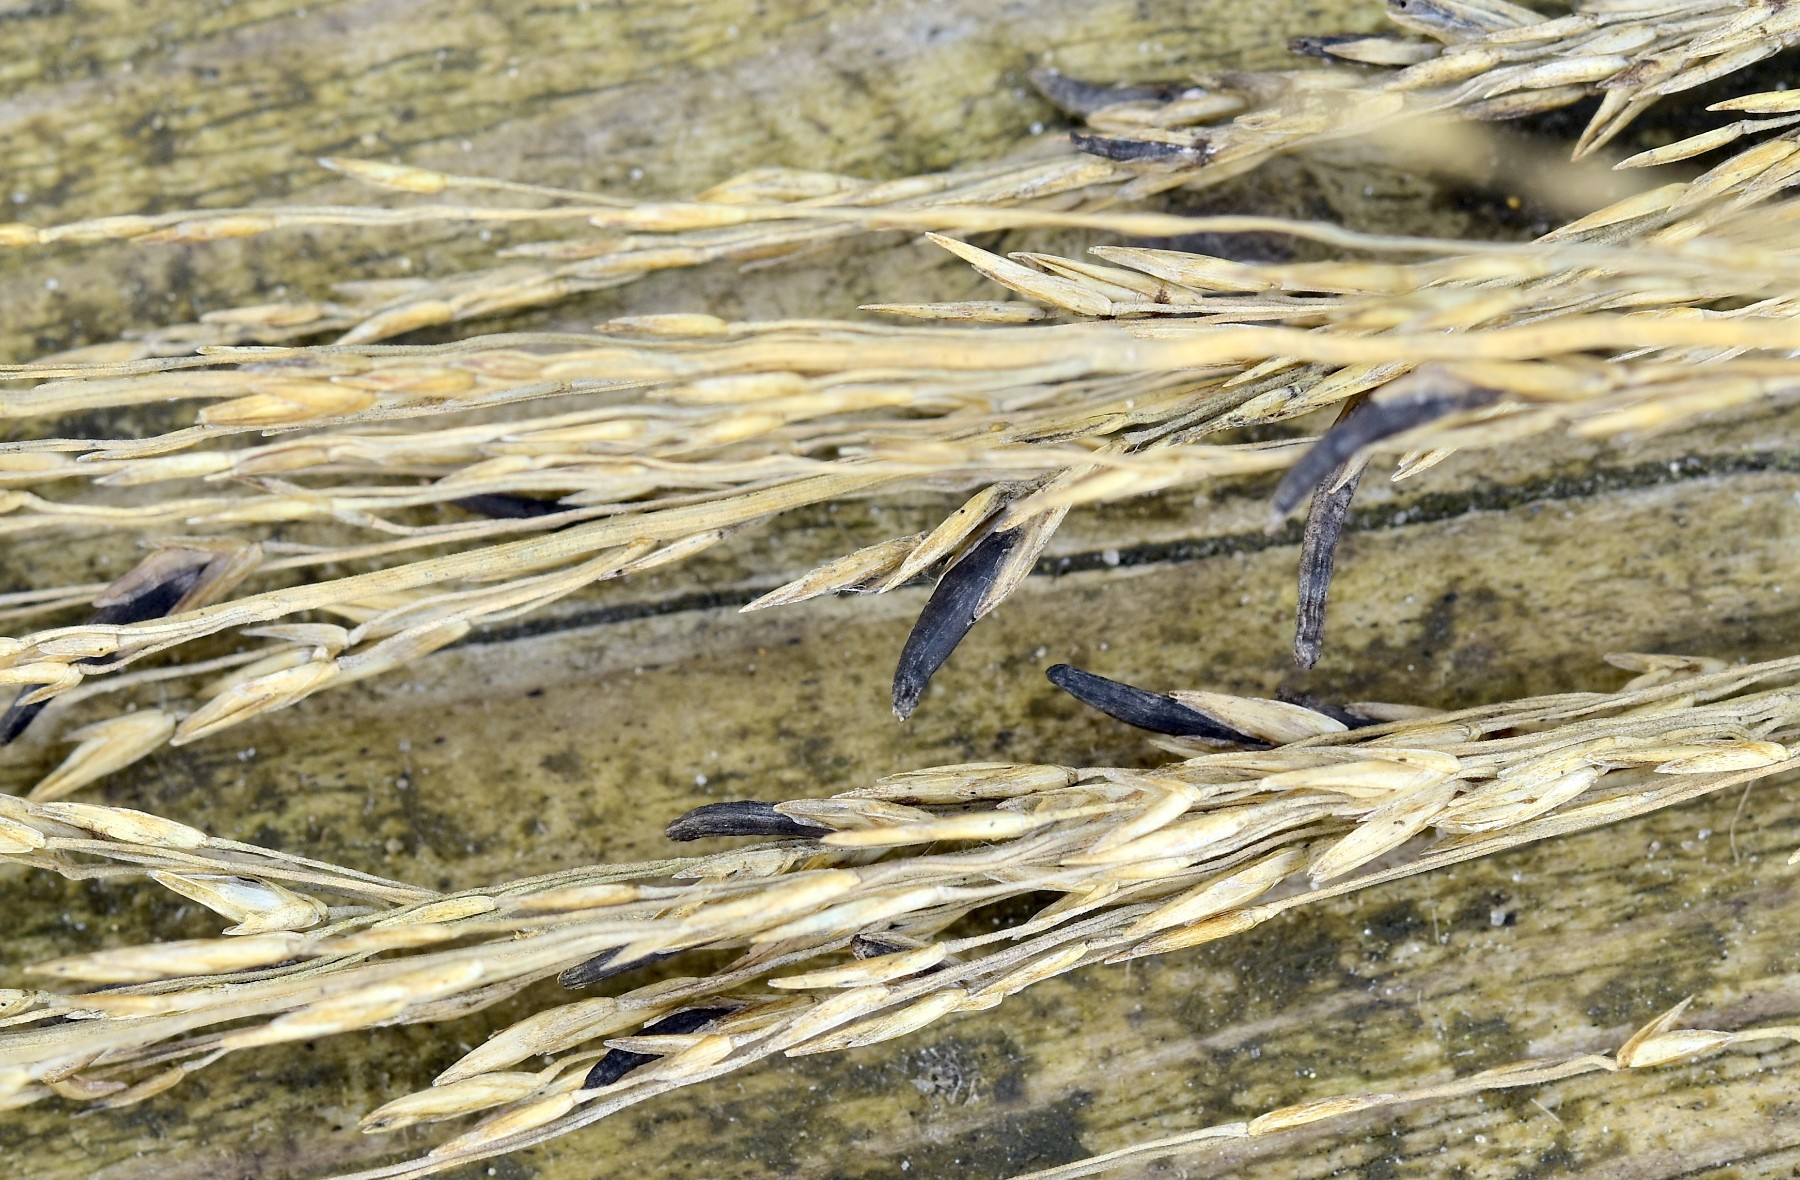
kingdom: Fungi
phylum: Ascomycota
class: Sordariomycetes
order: Hypocreales
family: Clavicipitaceae
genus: Claviceps
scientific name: Claviceps purpurea
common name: almindelig meldrøjer
